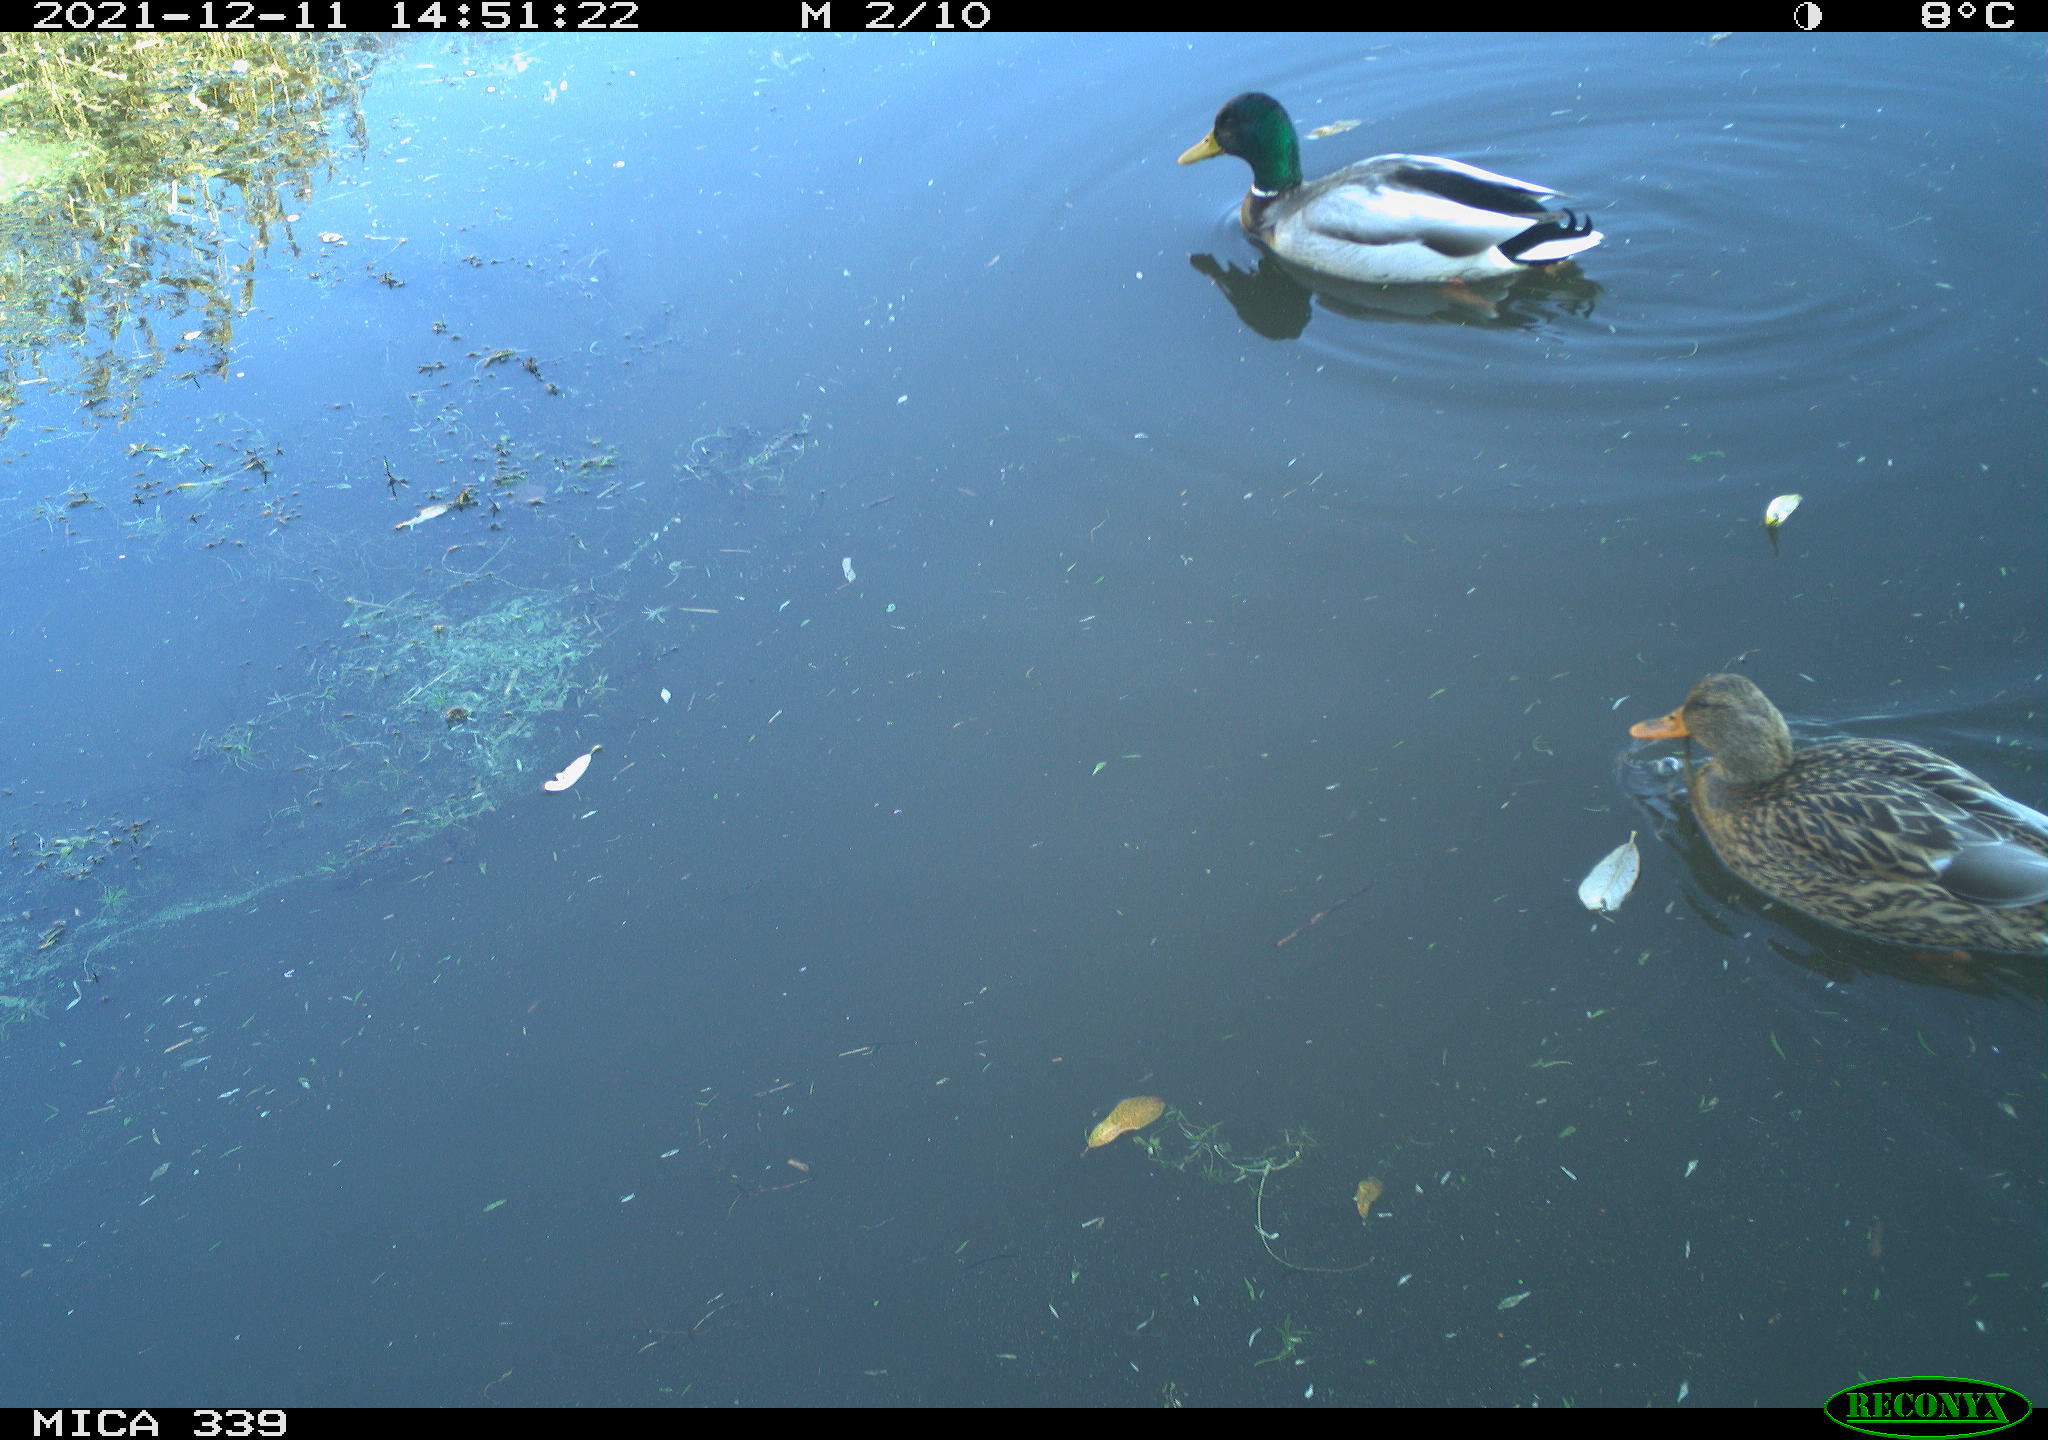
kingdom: Animalia
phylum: Chordata
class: Aves
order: Anseriformes
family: Anatidae
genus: Anas
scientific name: Anas platyrhynchos
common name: Mallard
